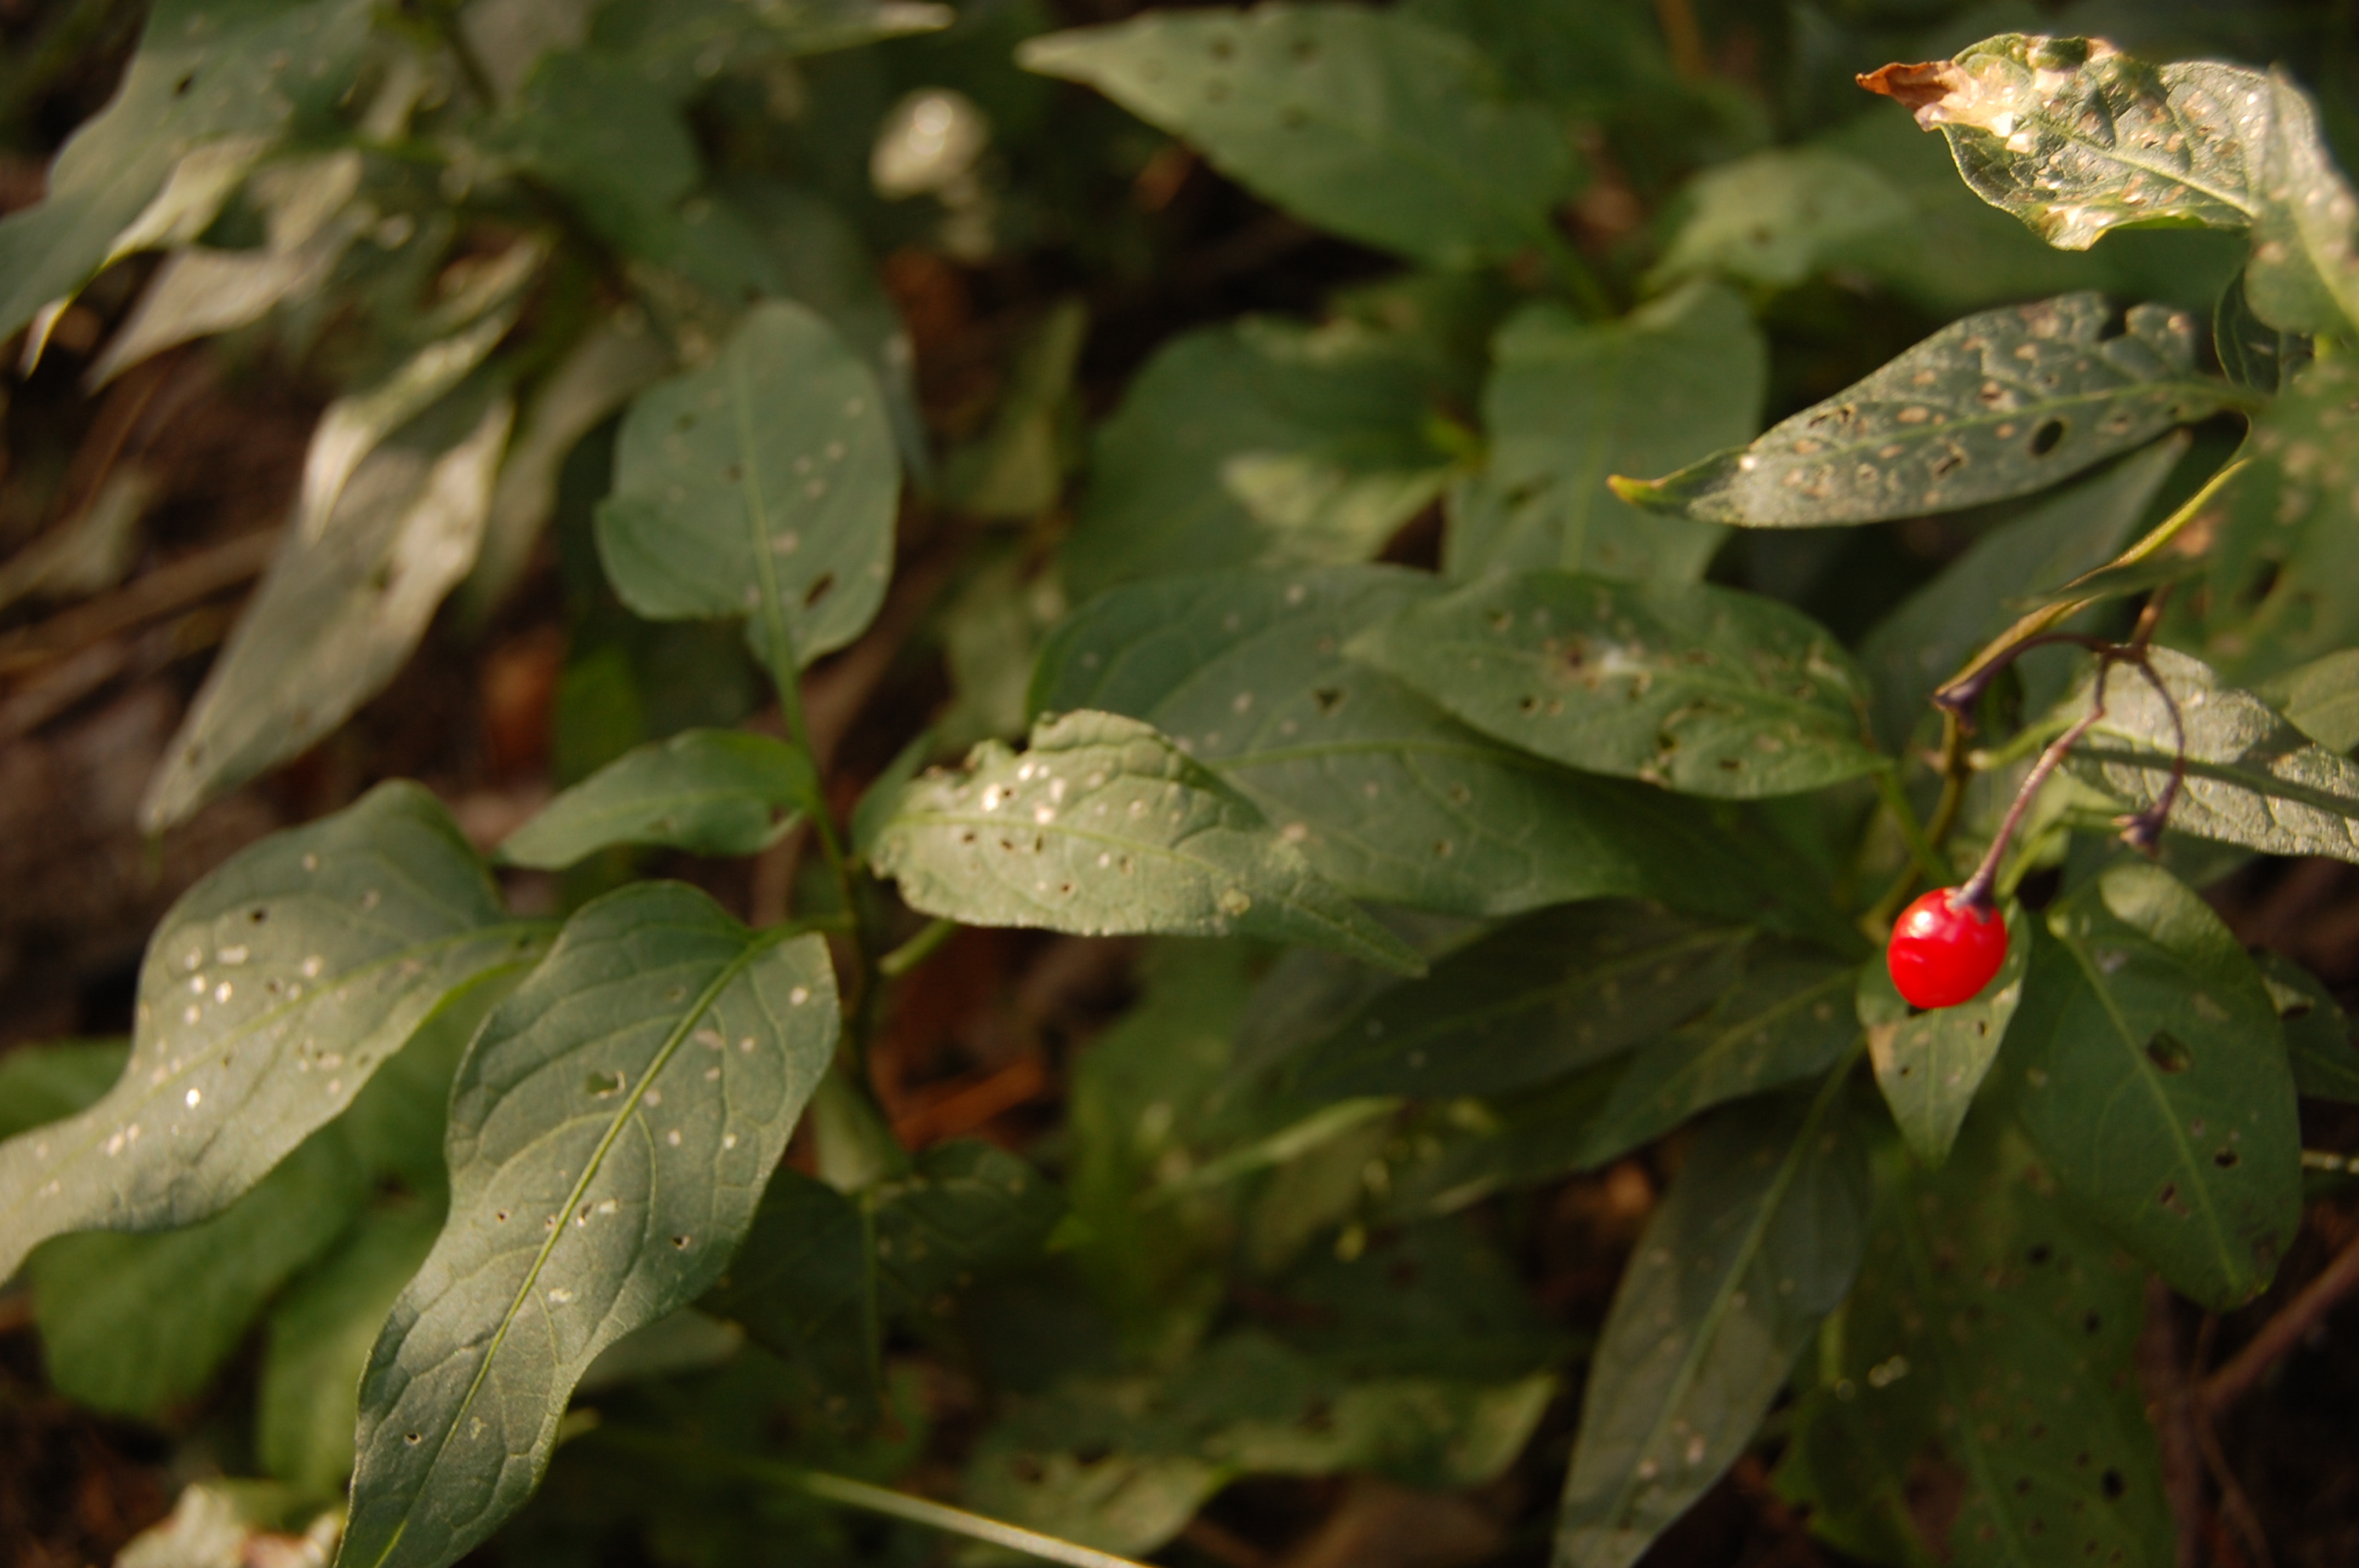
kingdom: Plantae
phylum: Tracheophyta
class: Magnoliopsida
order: Solanales
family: Solanaceae
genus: Solanum
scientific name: Solanum dulcamara
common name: Climbing nightshade
